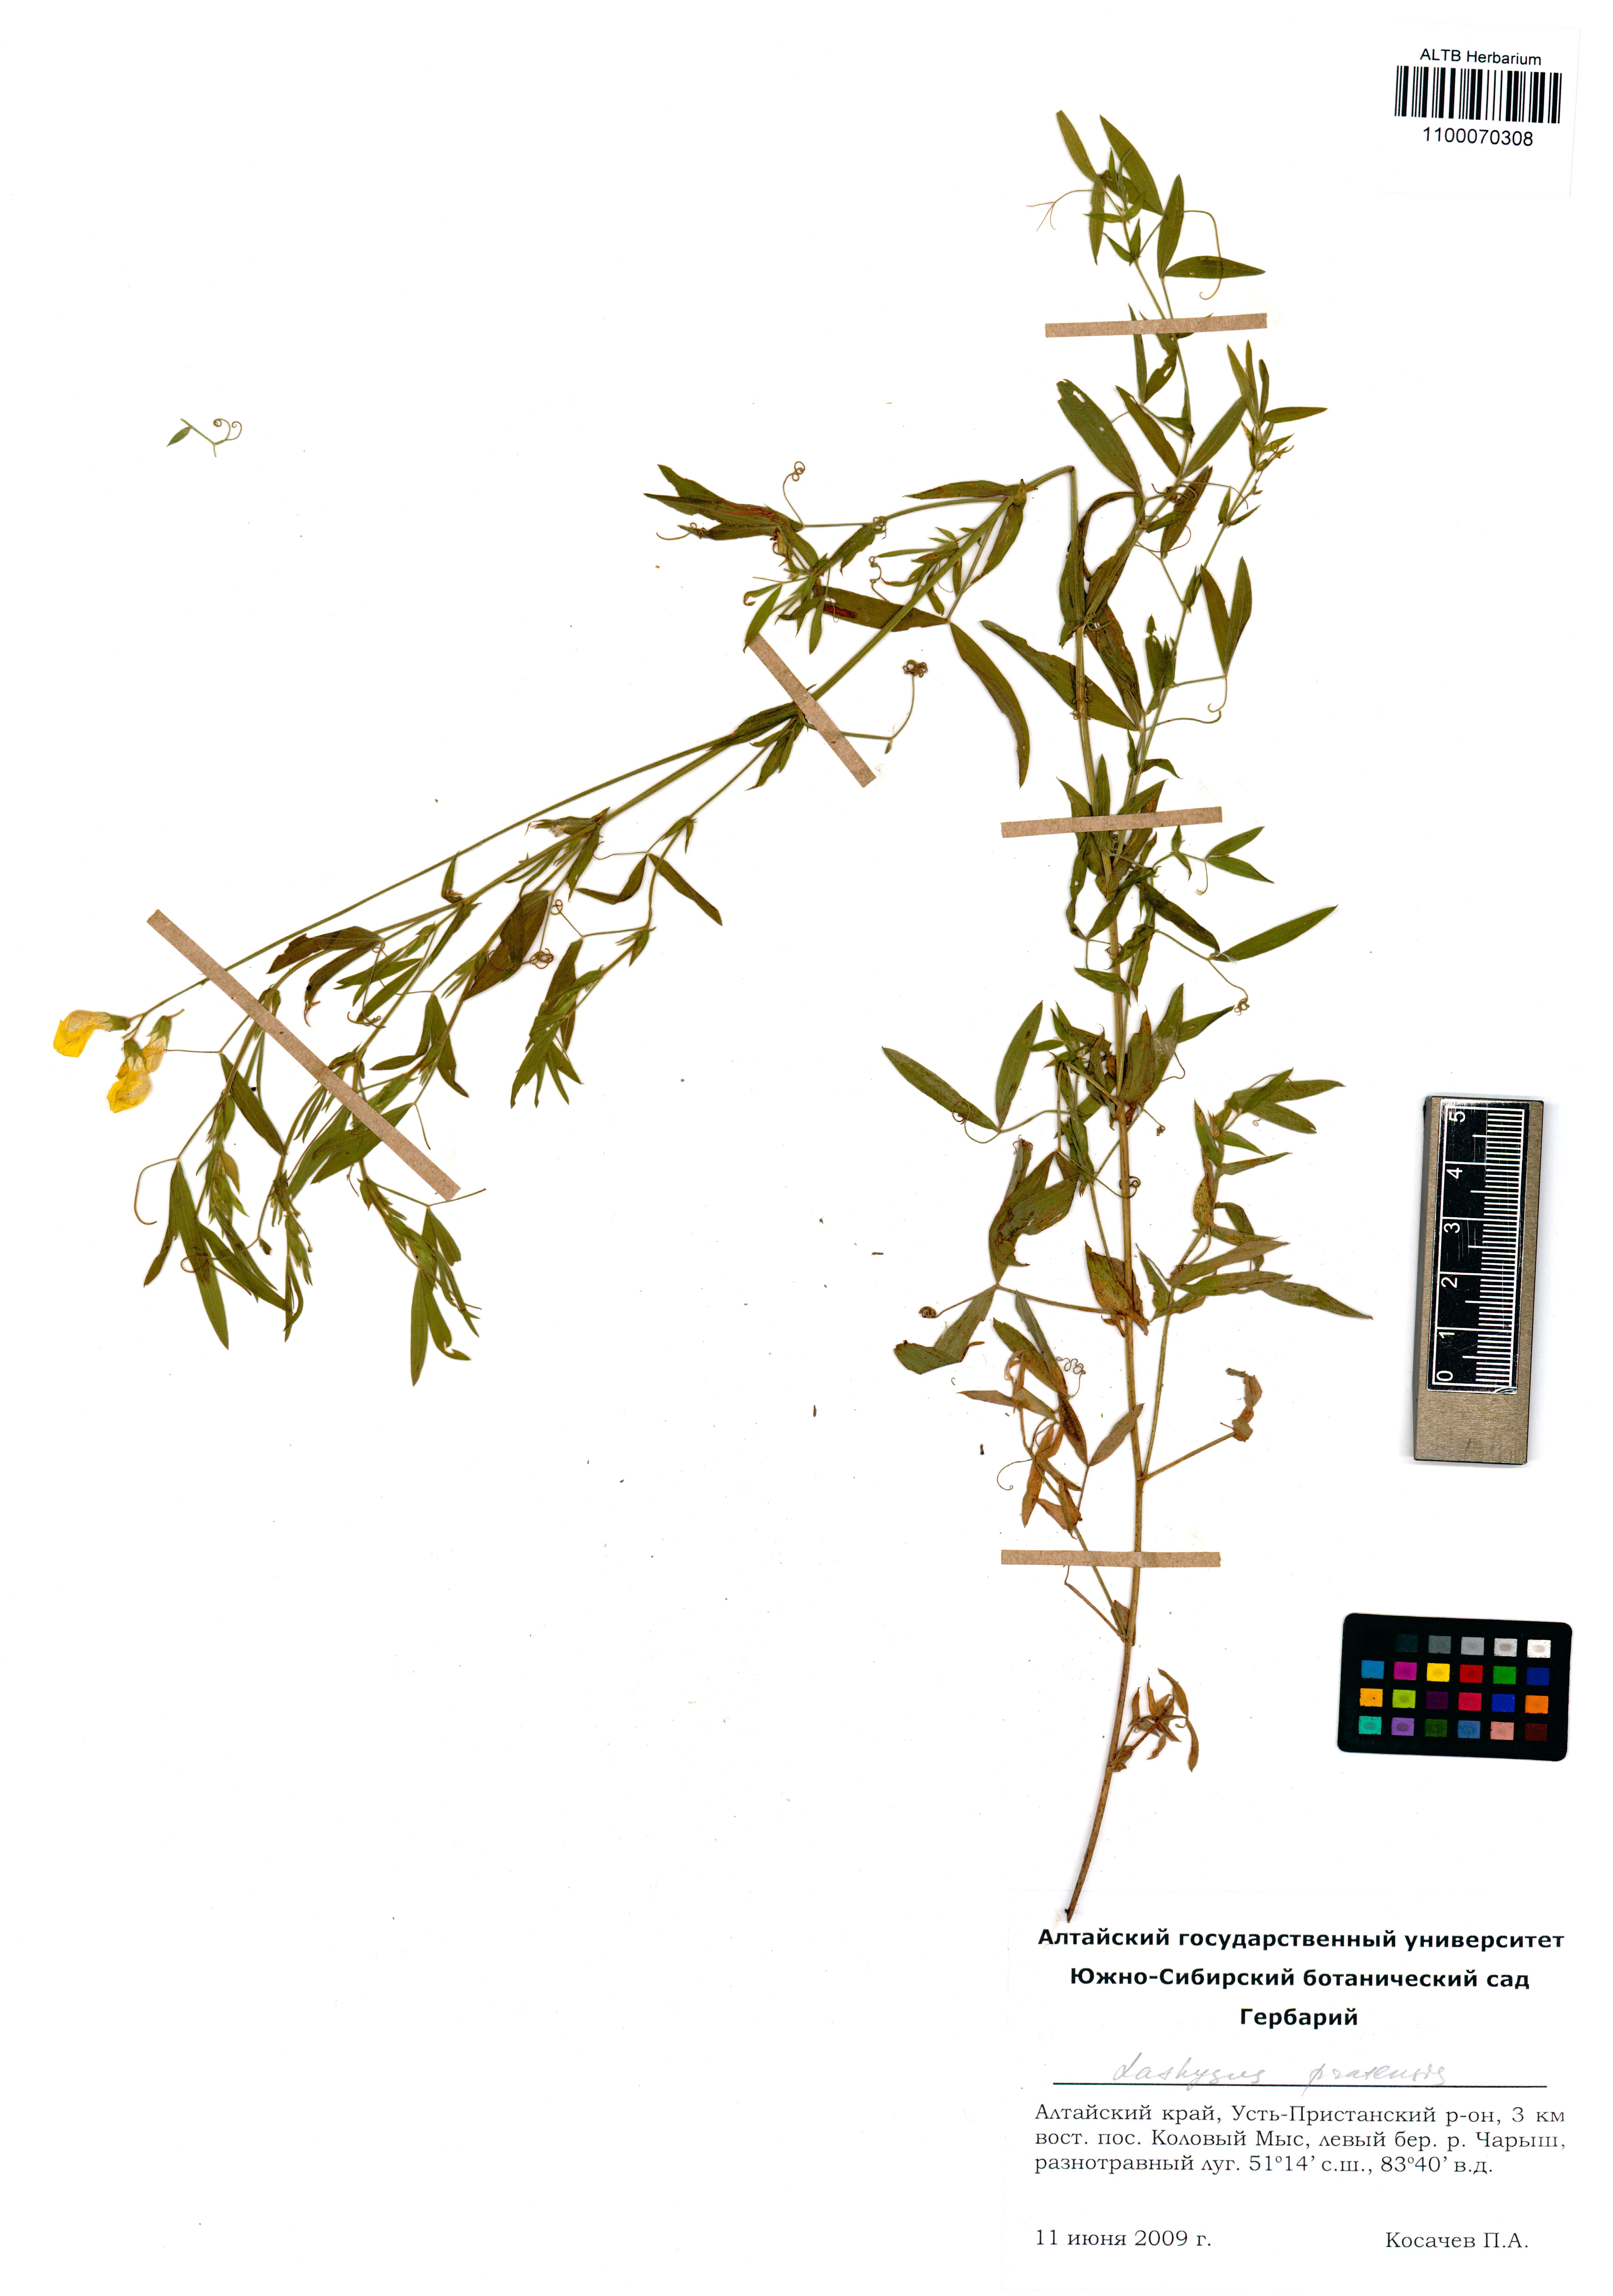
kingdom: Plantae
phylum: Tracheophyta
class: Magnoliopsida
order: Fabales
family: Fabaceae
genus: Lathyrus
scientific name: Lathyrus pratensis
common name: Meadow vetchling
